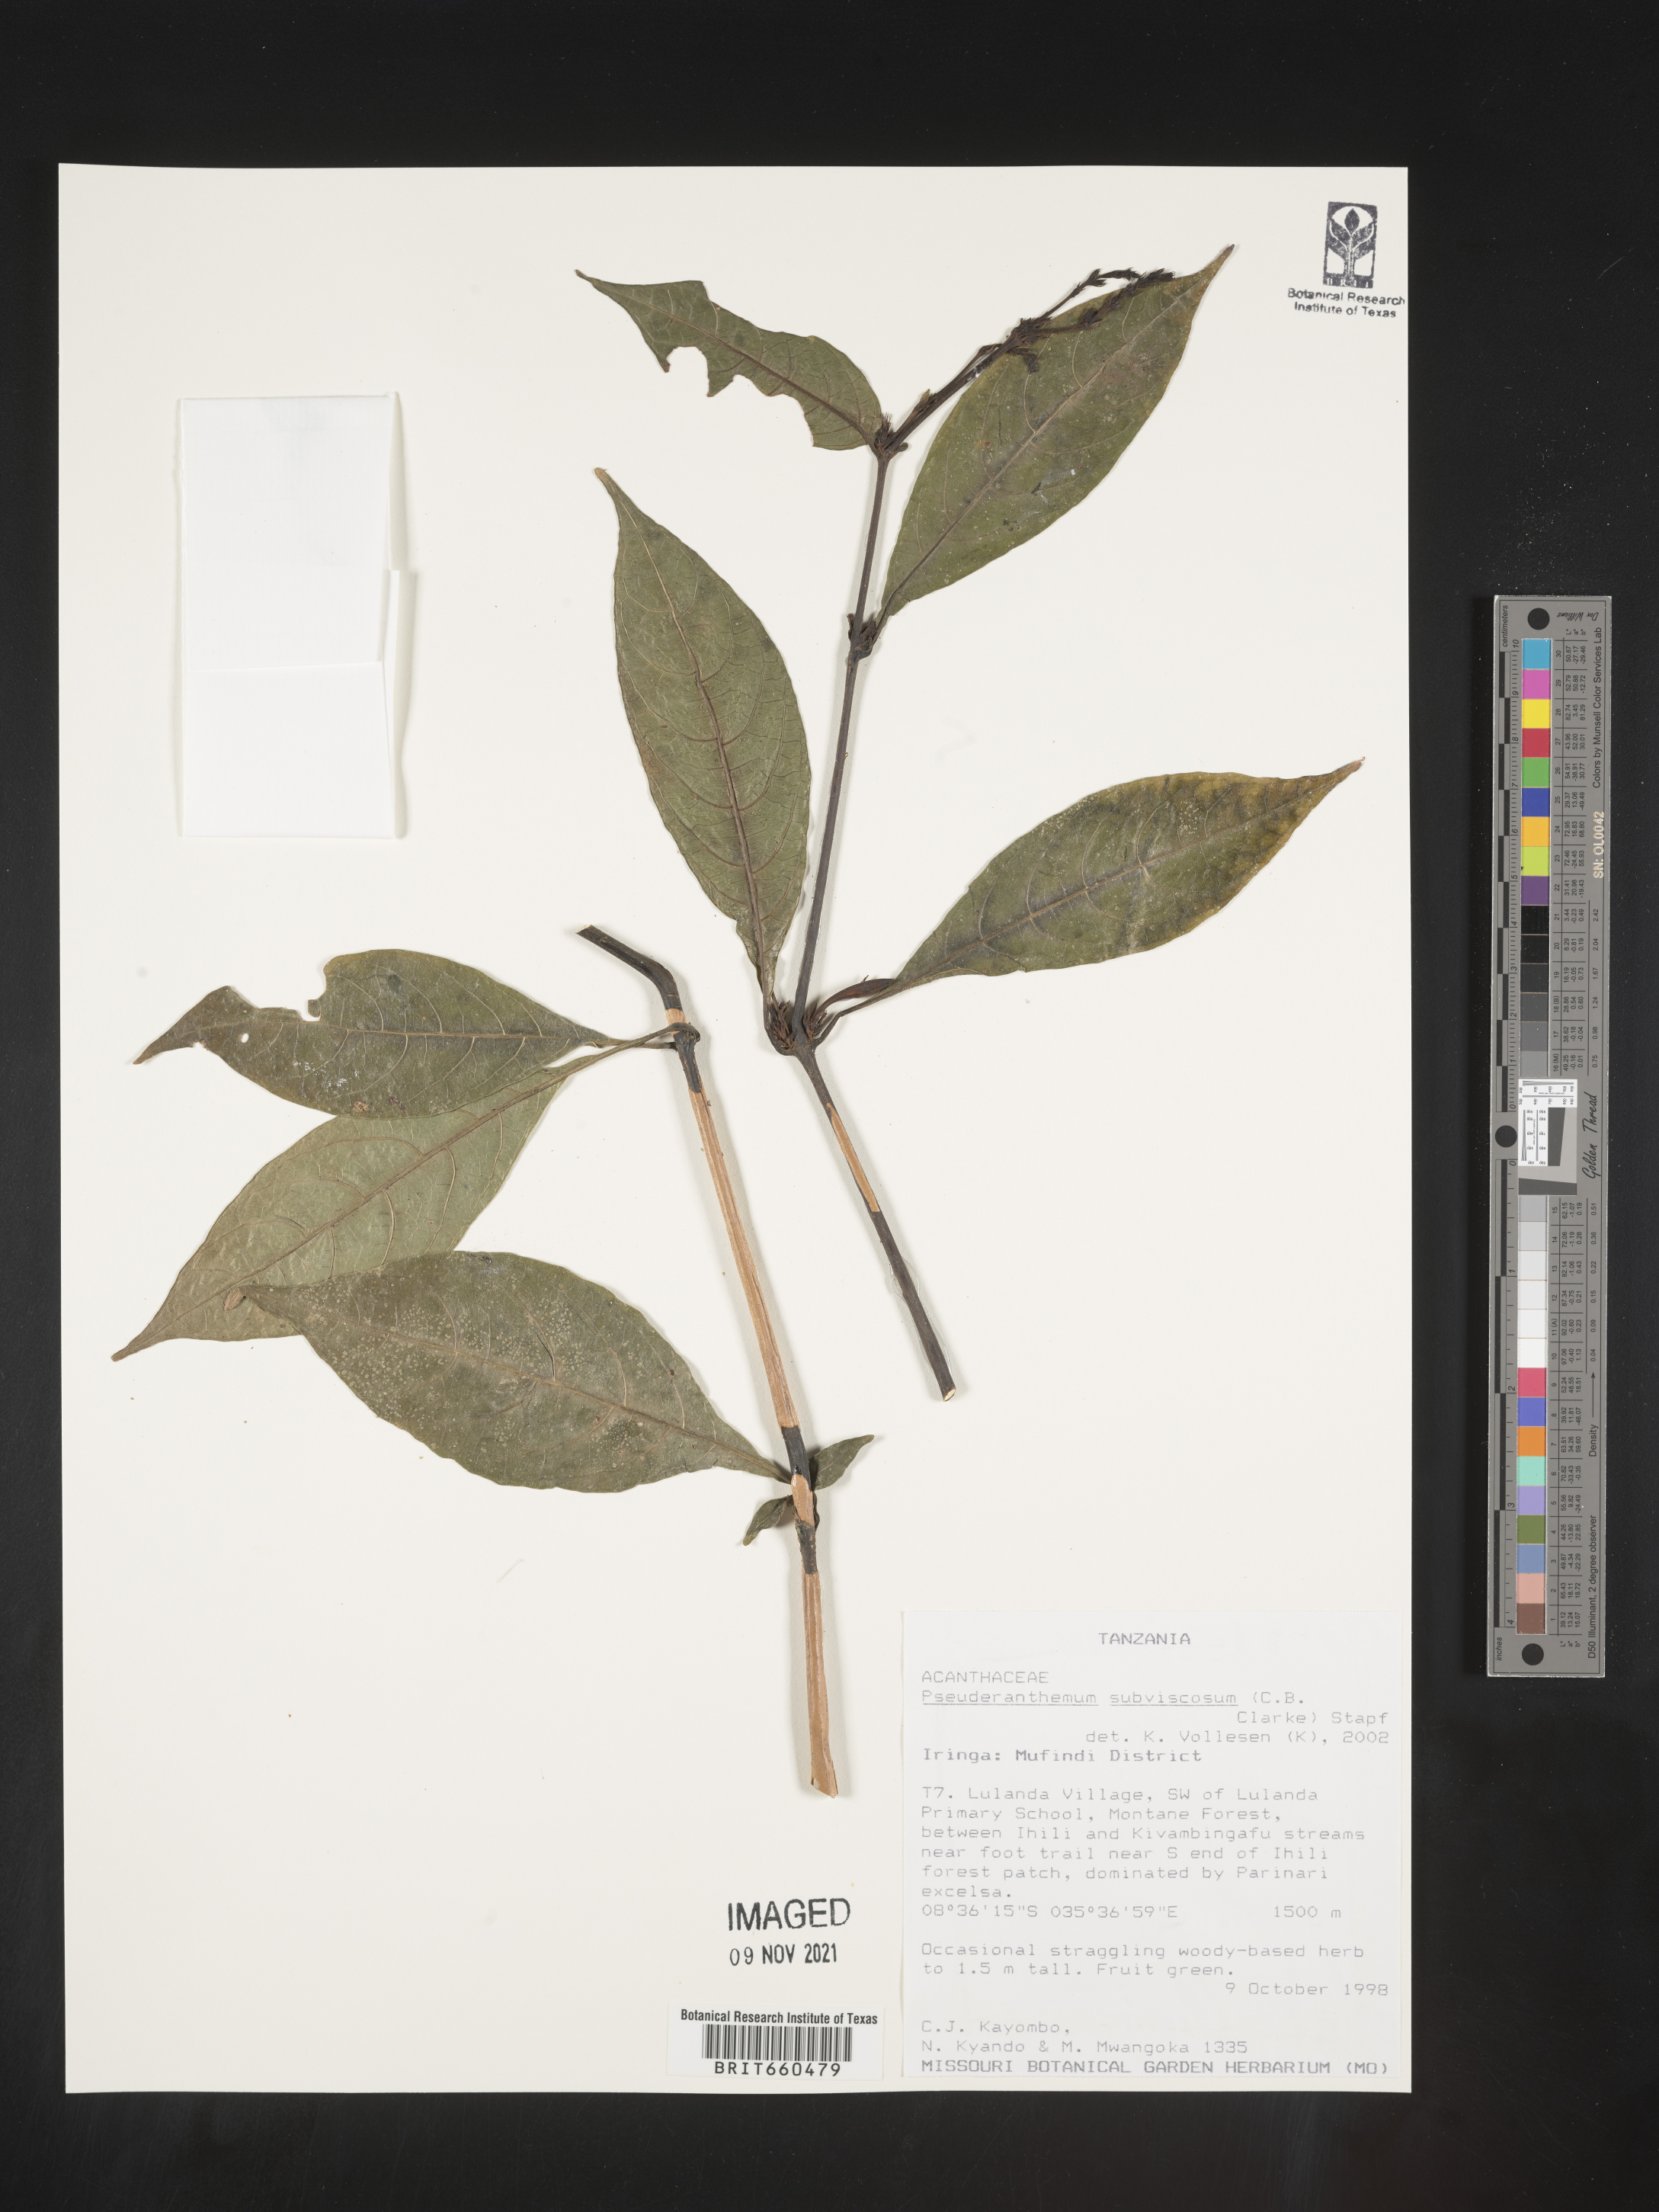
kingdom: Plantae
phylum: Tracheophyta
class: Magnoliopsida
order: Lamiales
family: Acanthaceae
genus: Pseuderanthemum
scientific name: Pseuderanthemum
